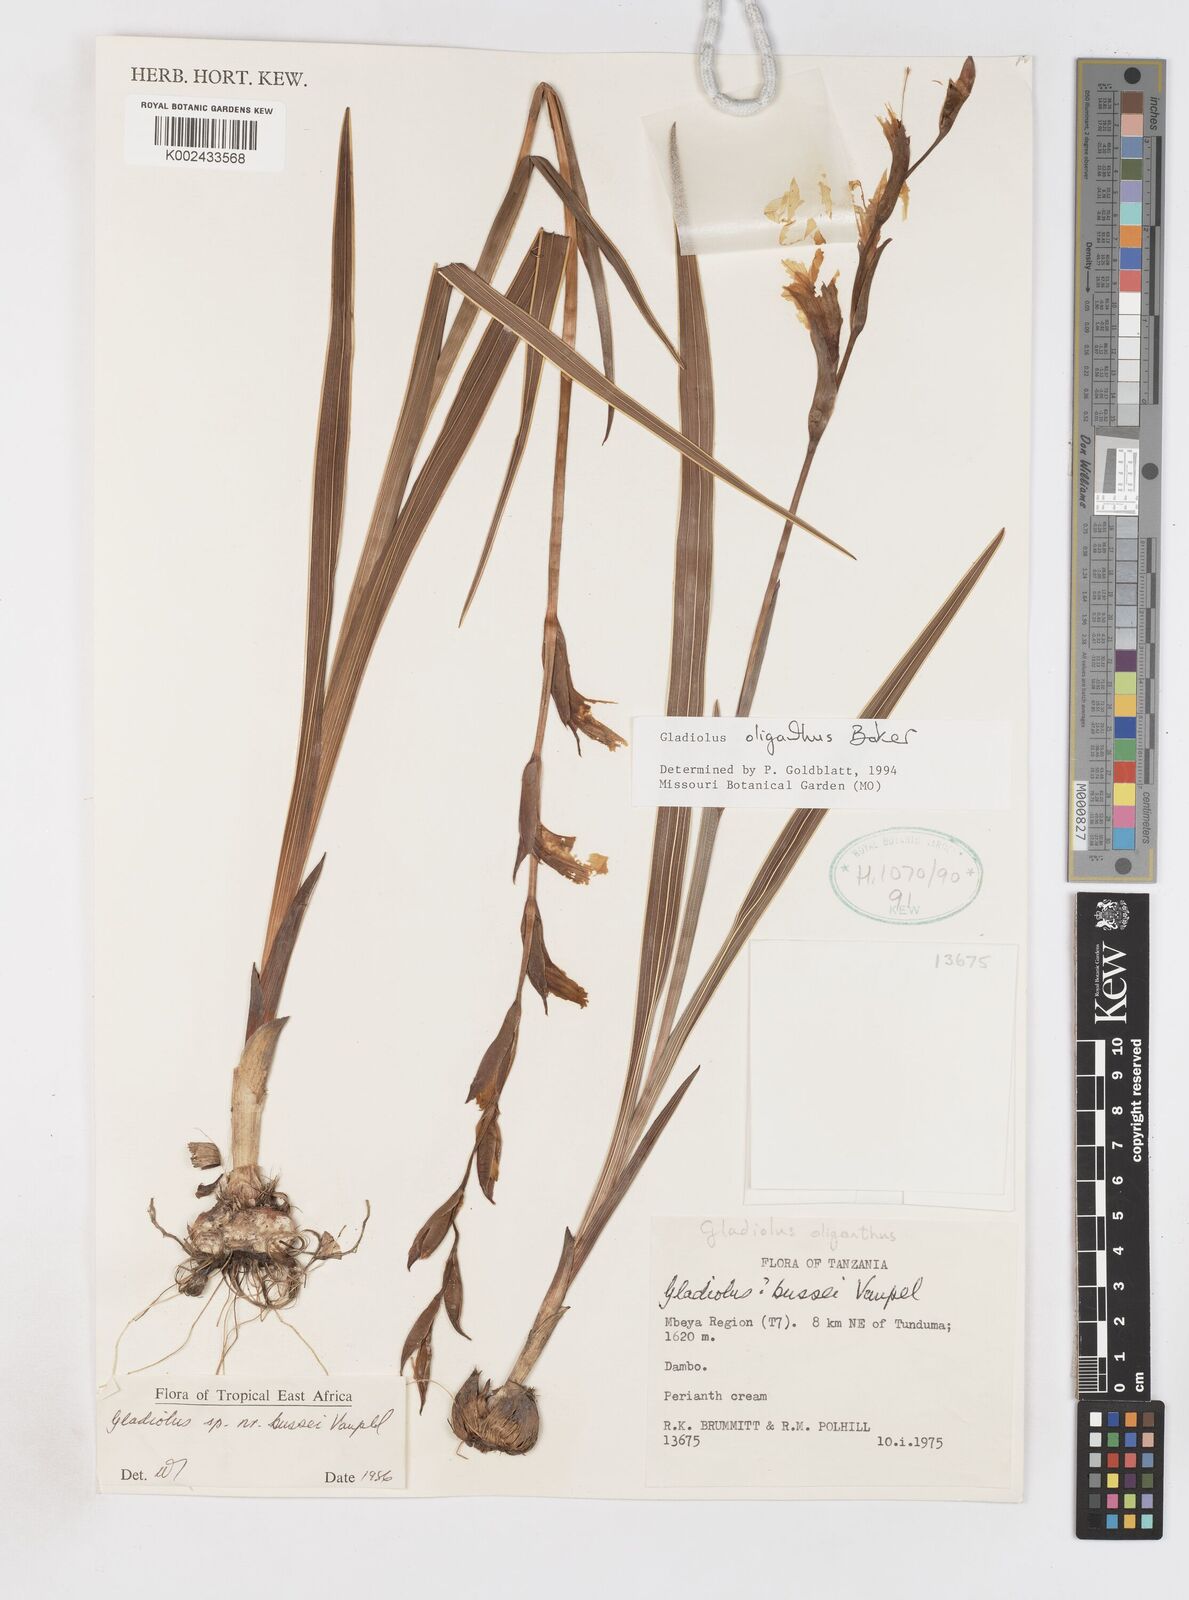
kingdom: Plantae
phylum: Tracheophyta
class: Liliopsida
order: Asparagales
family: Iridaceae
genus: Gladiolus
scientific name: Gladiolus oliganthus
